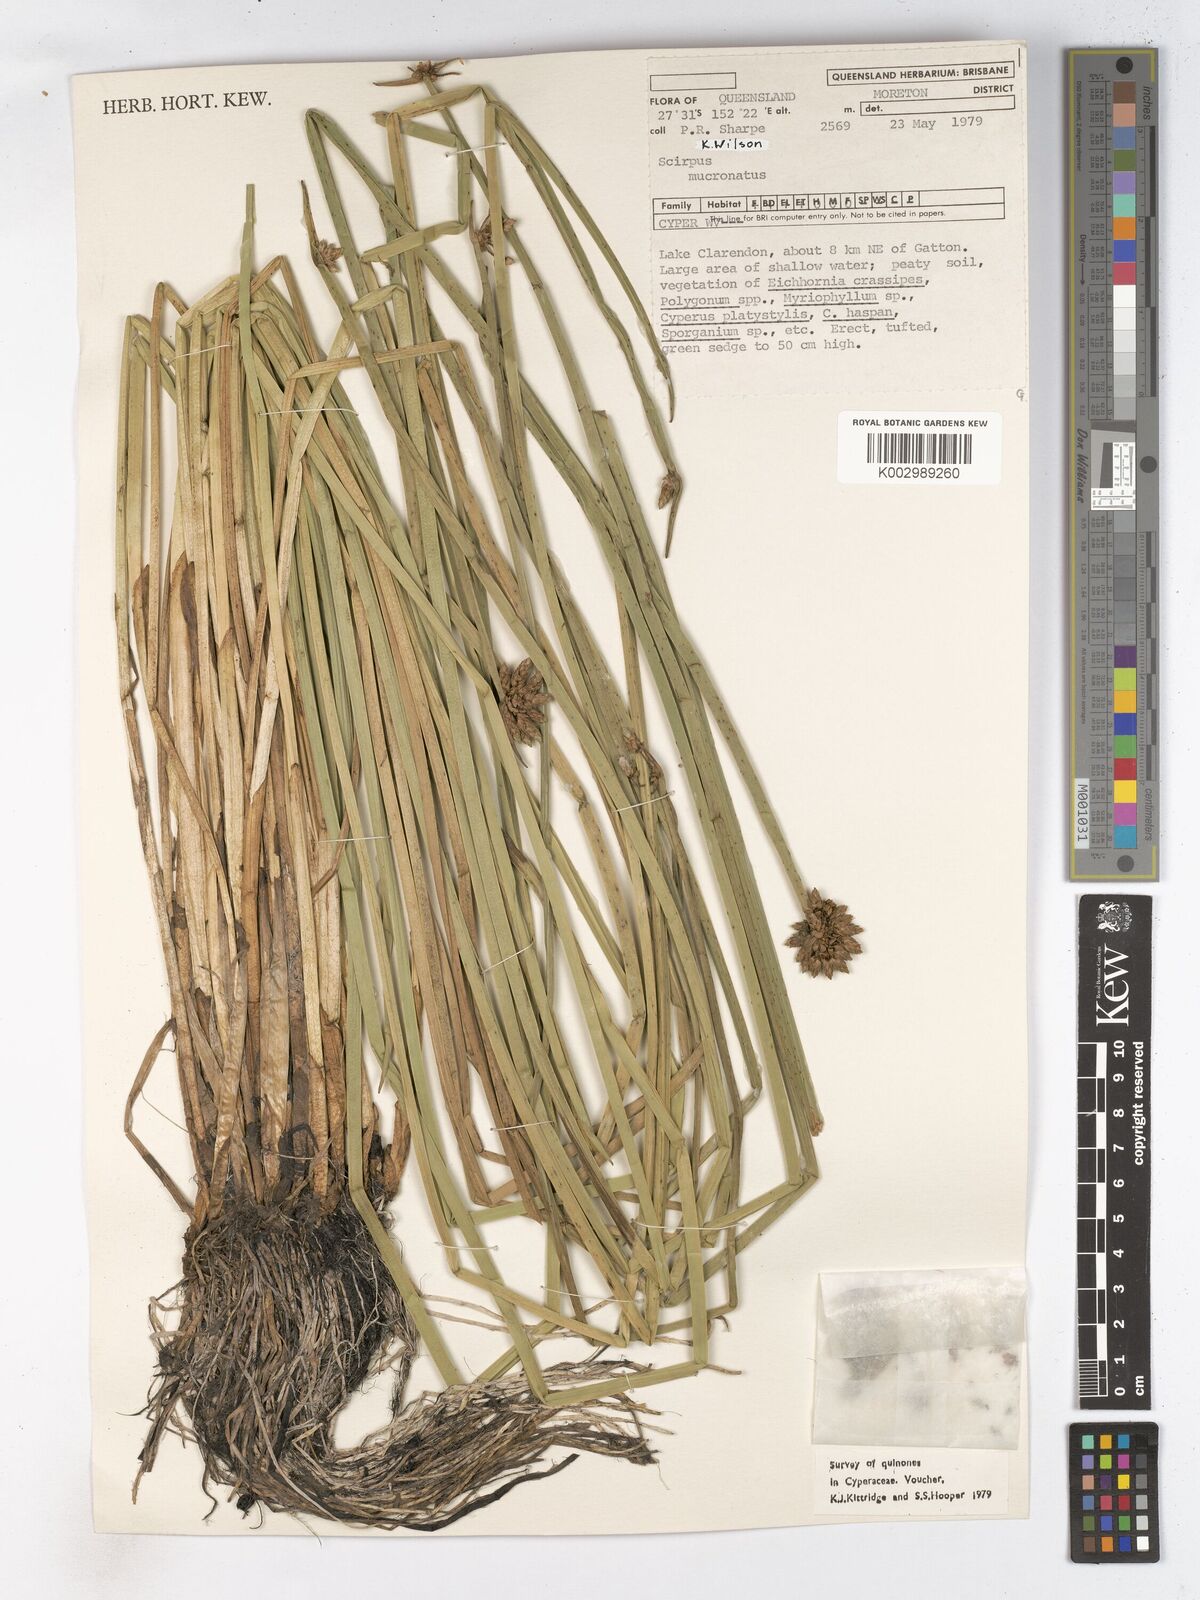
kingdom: Plantae
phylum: Tracheophyta
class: Liliopsida
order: Poales
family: Cyperaceae
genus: Schoenoplectiella
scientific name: Schoenoplectiella mucronata
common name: Bog bulrush
